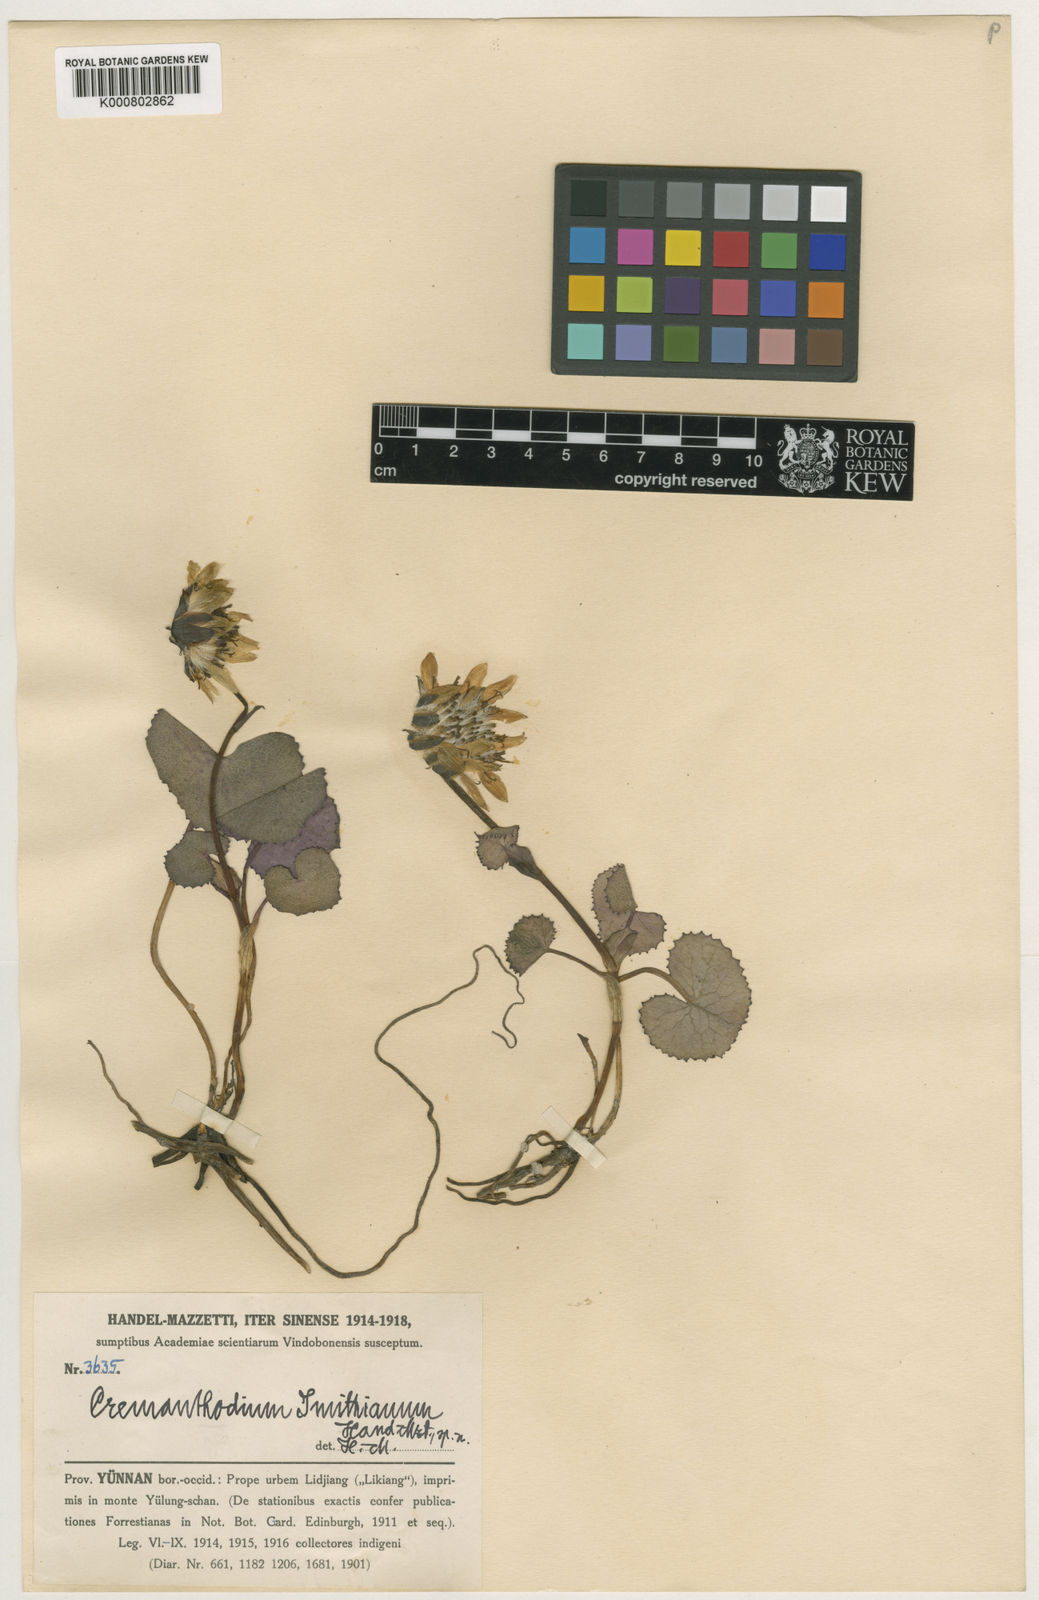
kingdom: Plantae
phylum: Tracheophyta
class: Magnoliopsida
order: Asterales
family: Asteraceae
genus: Cremanthodium
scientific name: Cremanthodium smithianum
